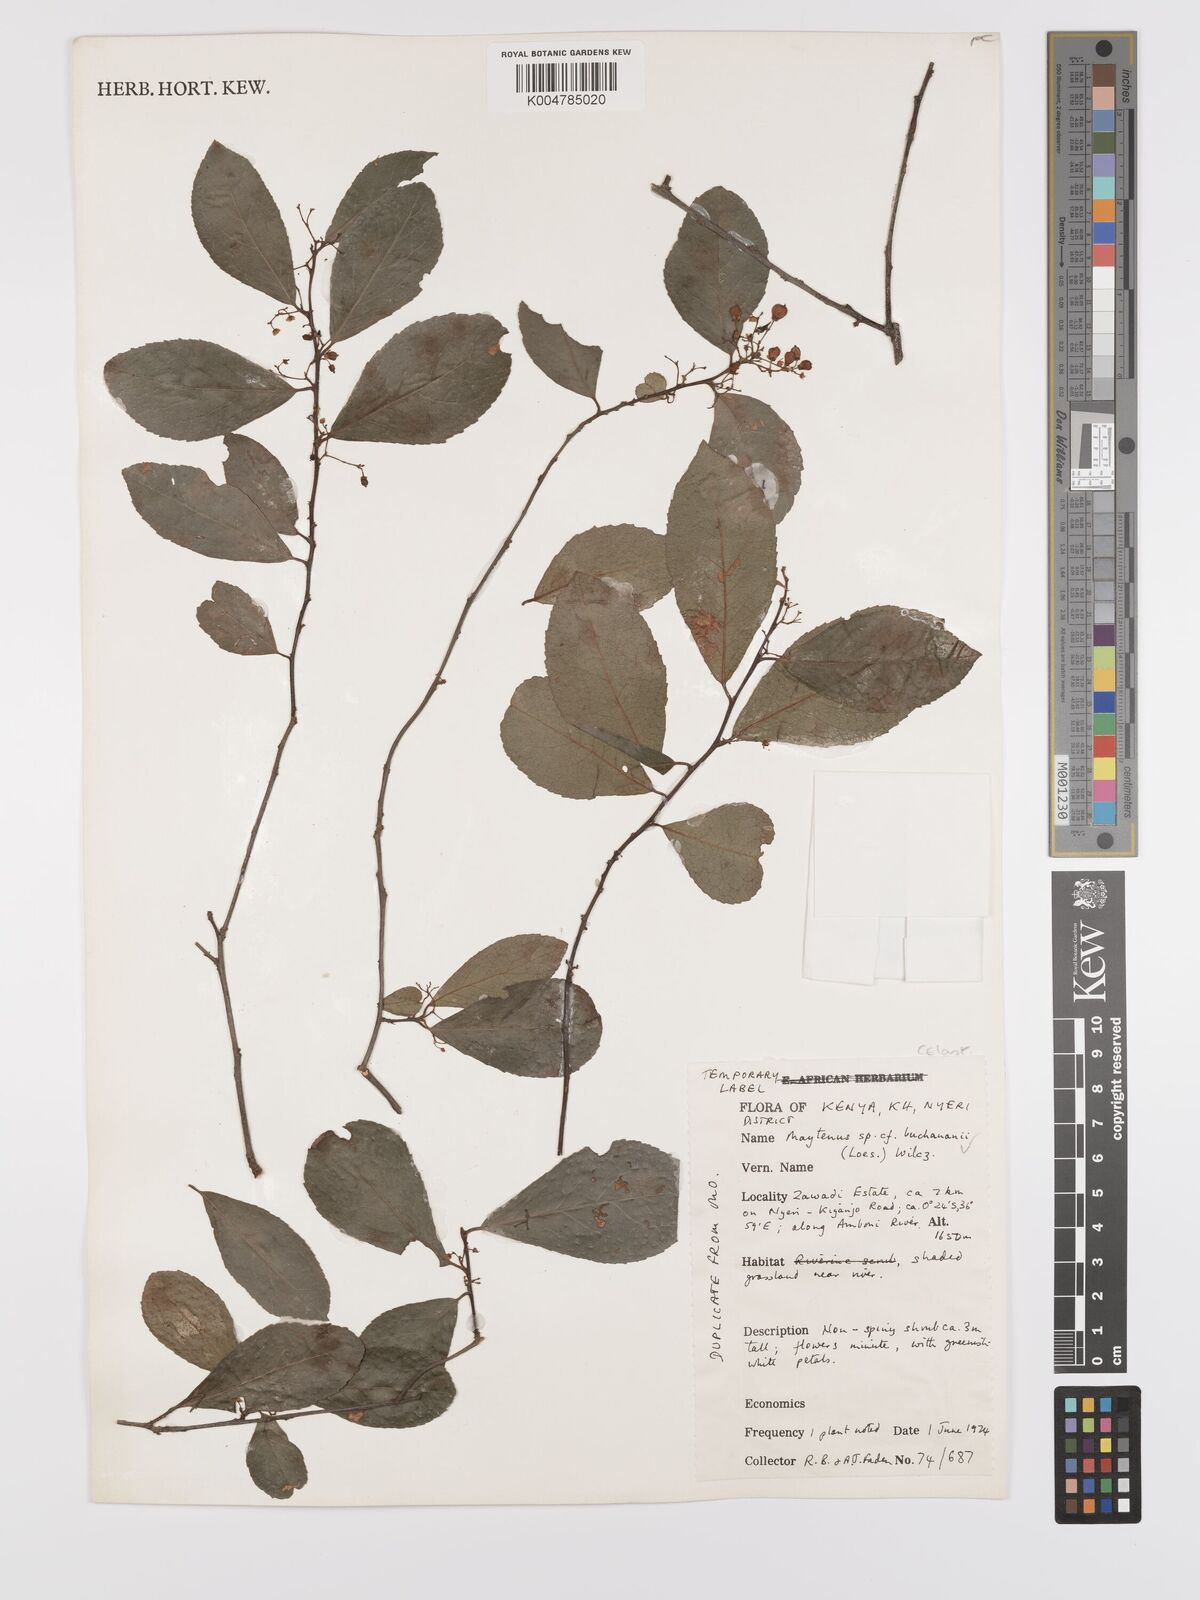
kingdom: Plantae
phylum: Tracheophyta
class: Magnoliopsida
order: Celastrales
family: Celastraceae
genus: Gymnosporia
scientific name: Gymnosporia buchananii
